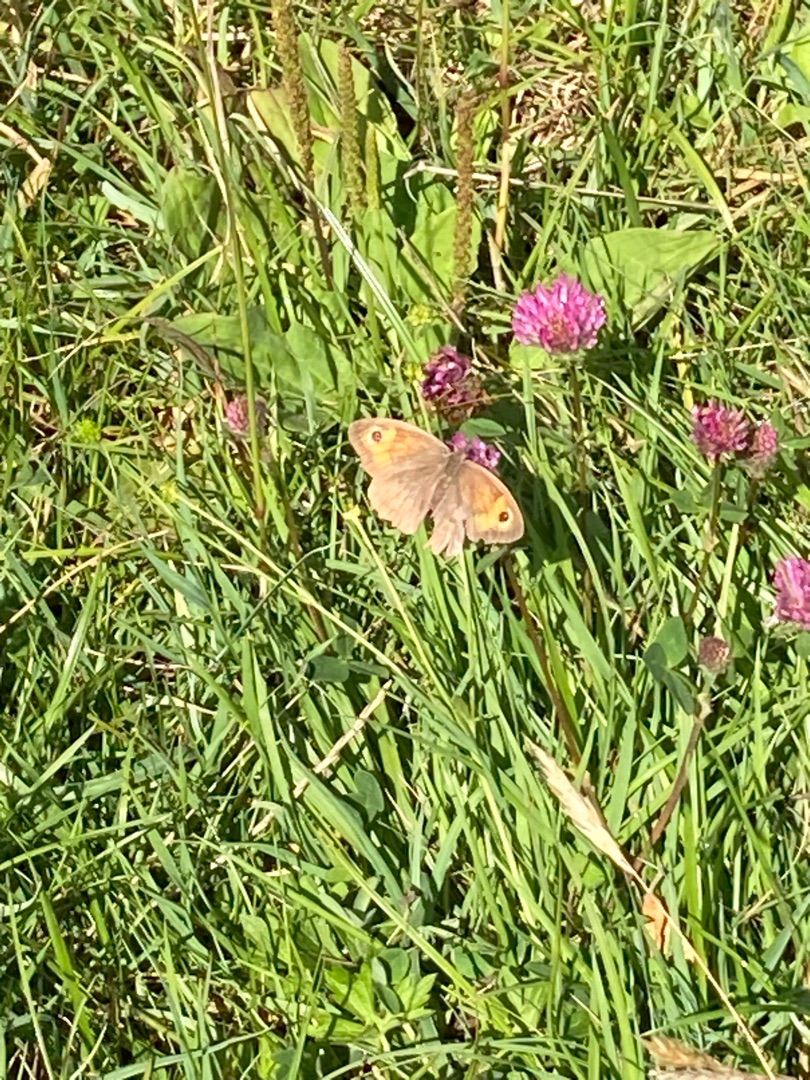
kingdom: Animalia
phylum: Arthropoda
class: Insecta
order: Lepidoptera
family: Nymphalidae
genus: Maniola
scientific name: Maniola jurtina
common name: Græsrandøje
